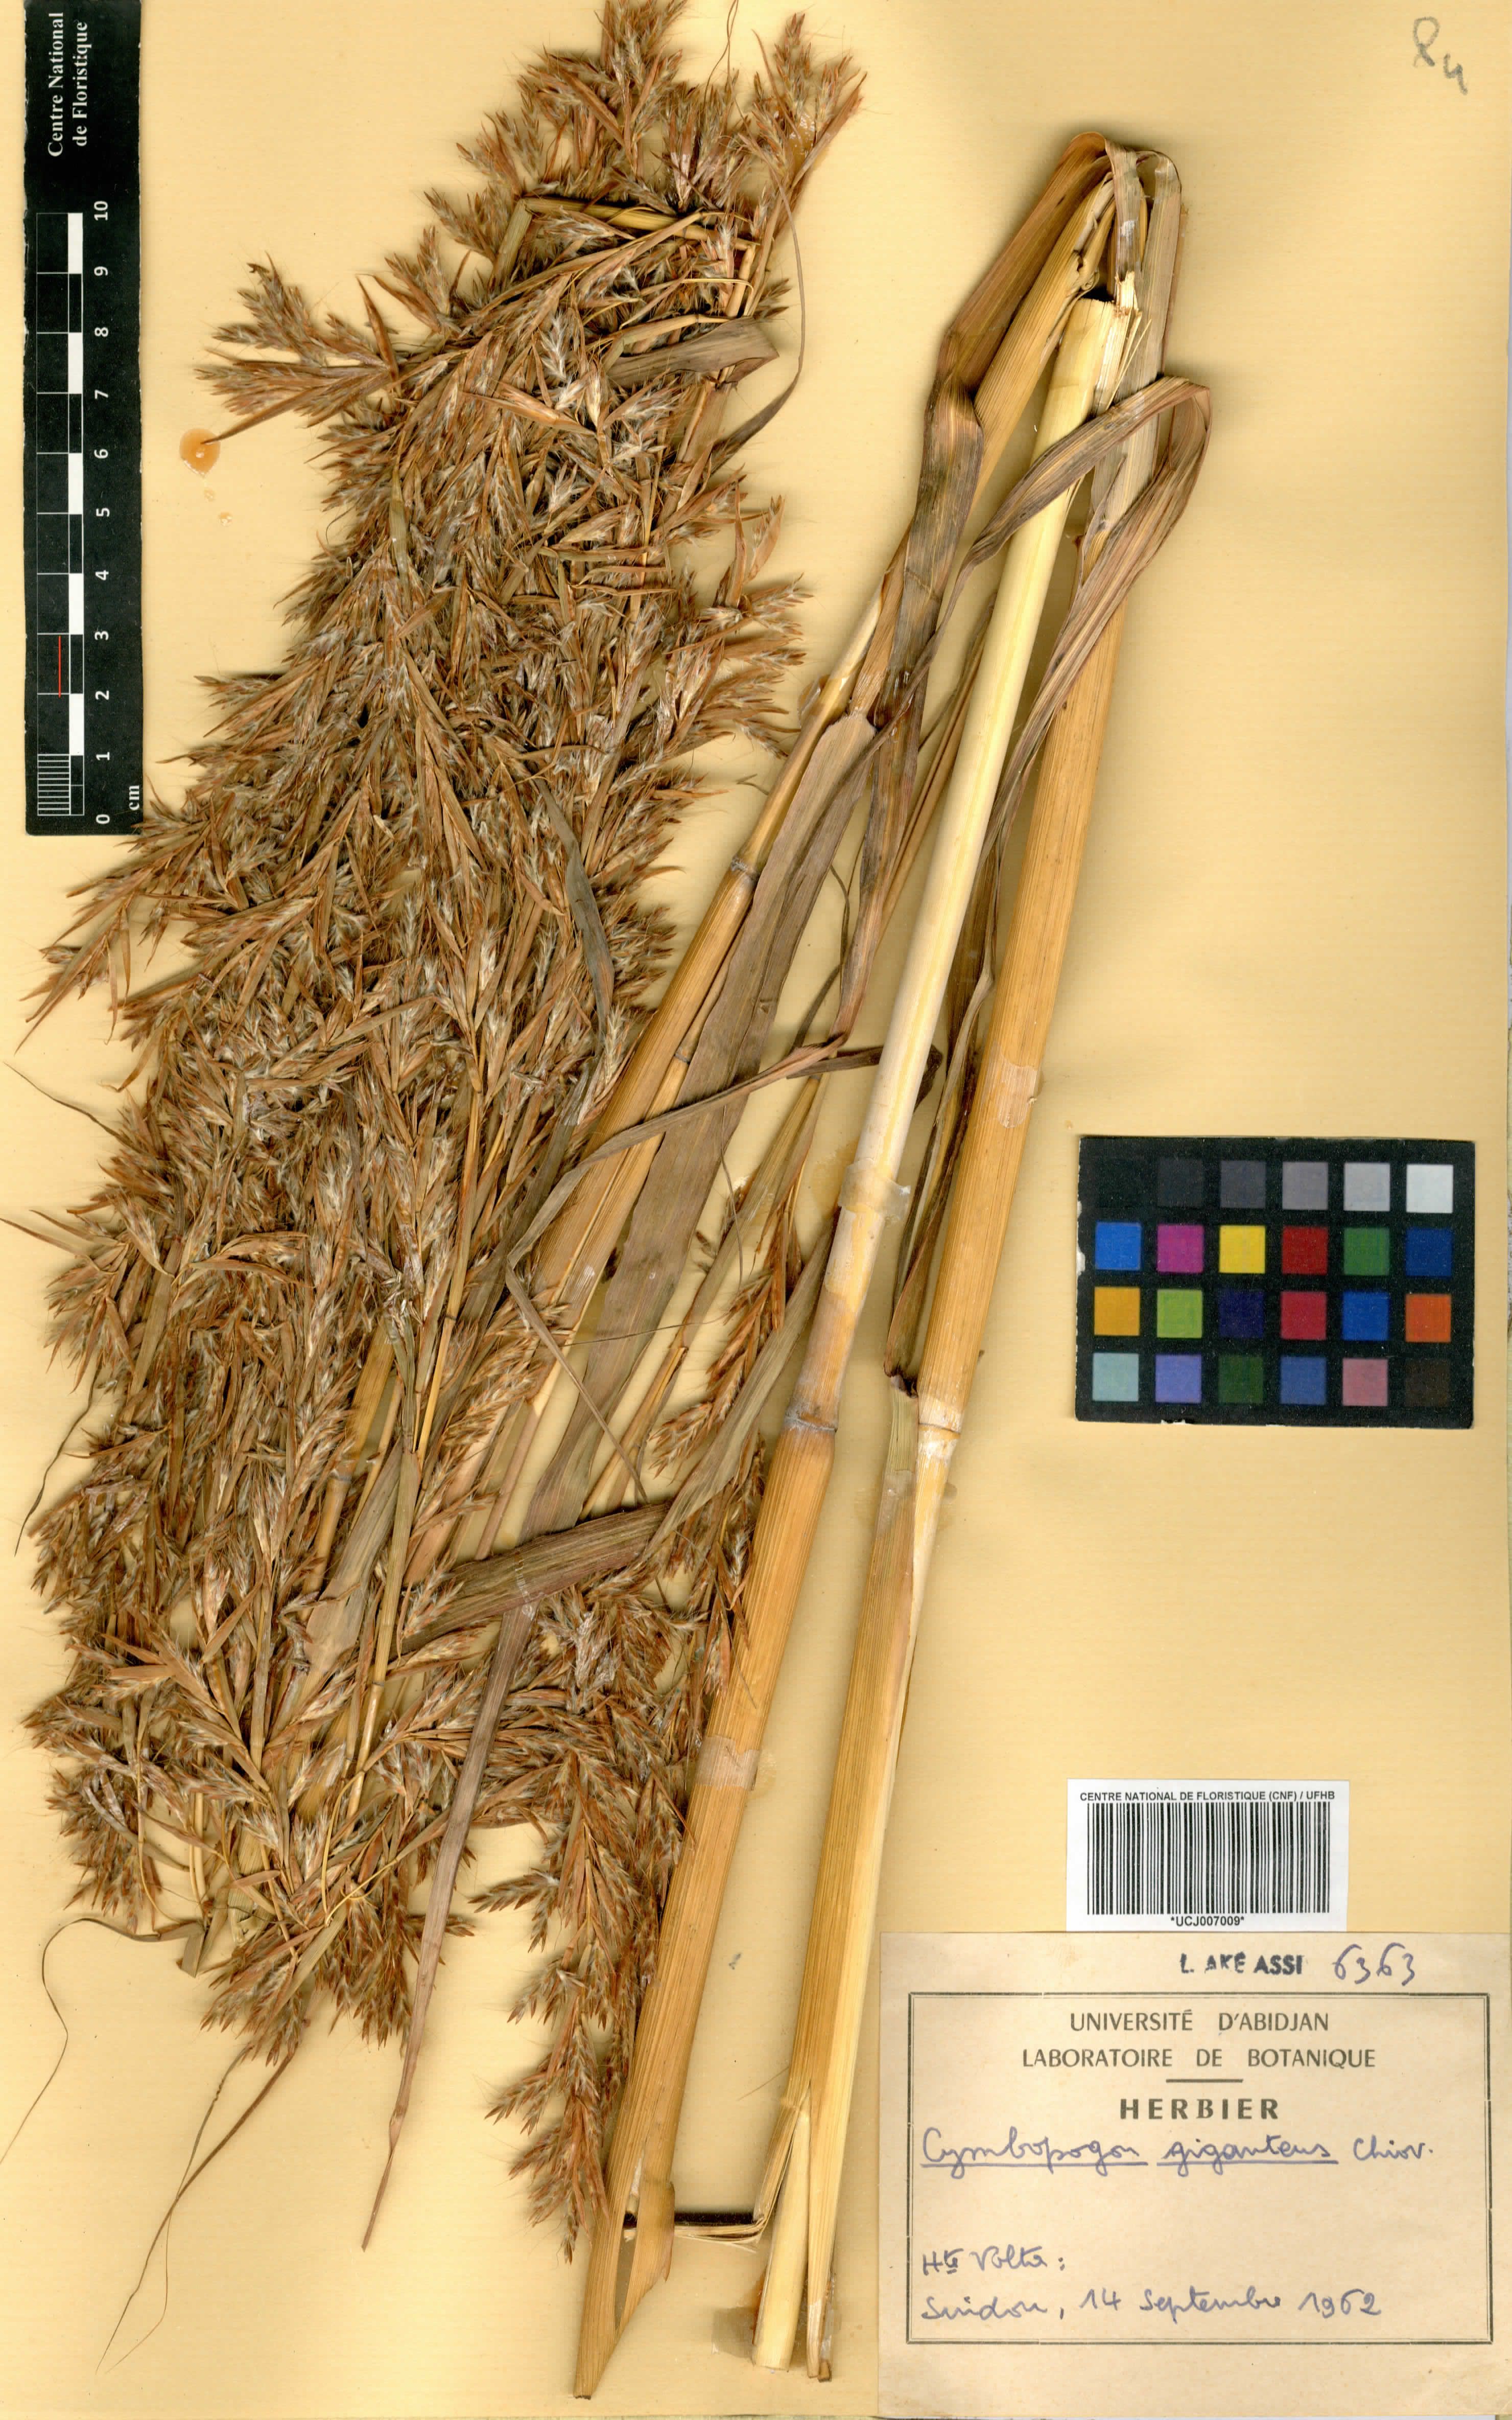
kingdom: Plantae
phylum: Tracheophyta
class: Liliopsida
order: Poales
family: Poaceae
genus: Cymbopogon
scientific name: Cymbopogon giganteus
